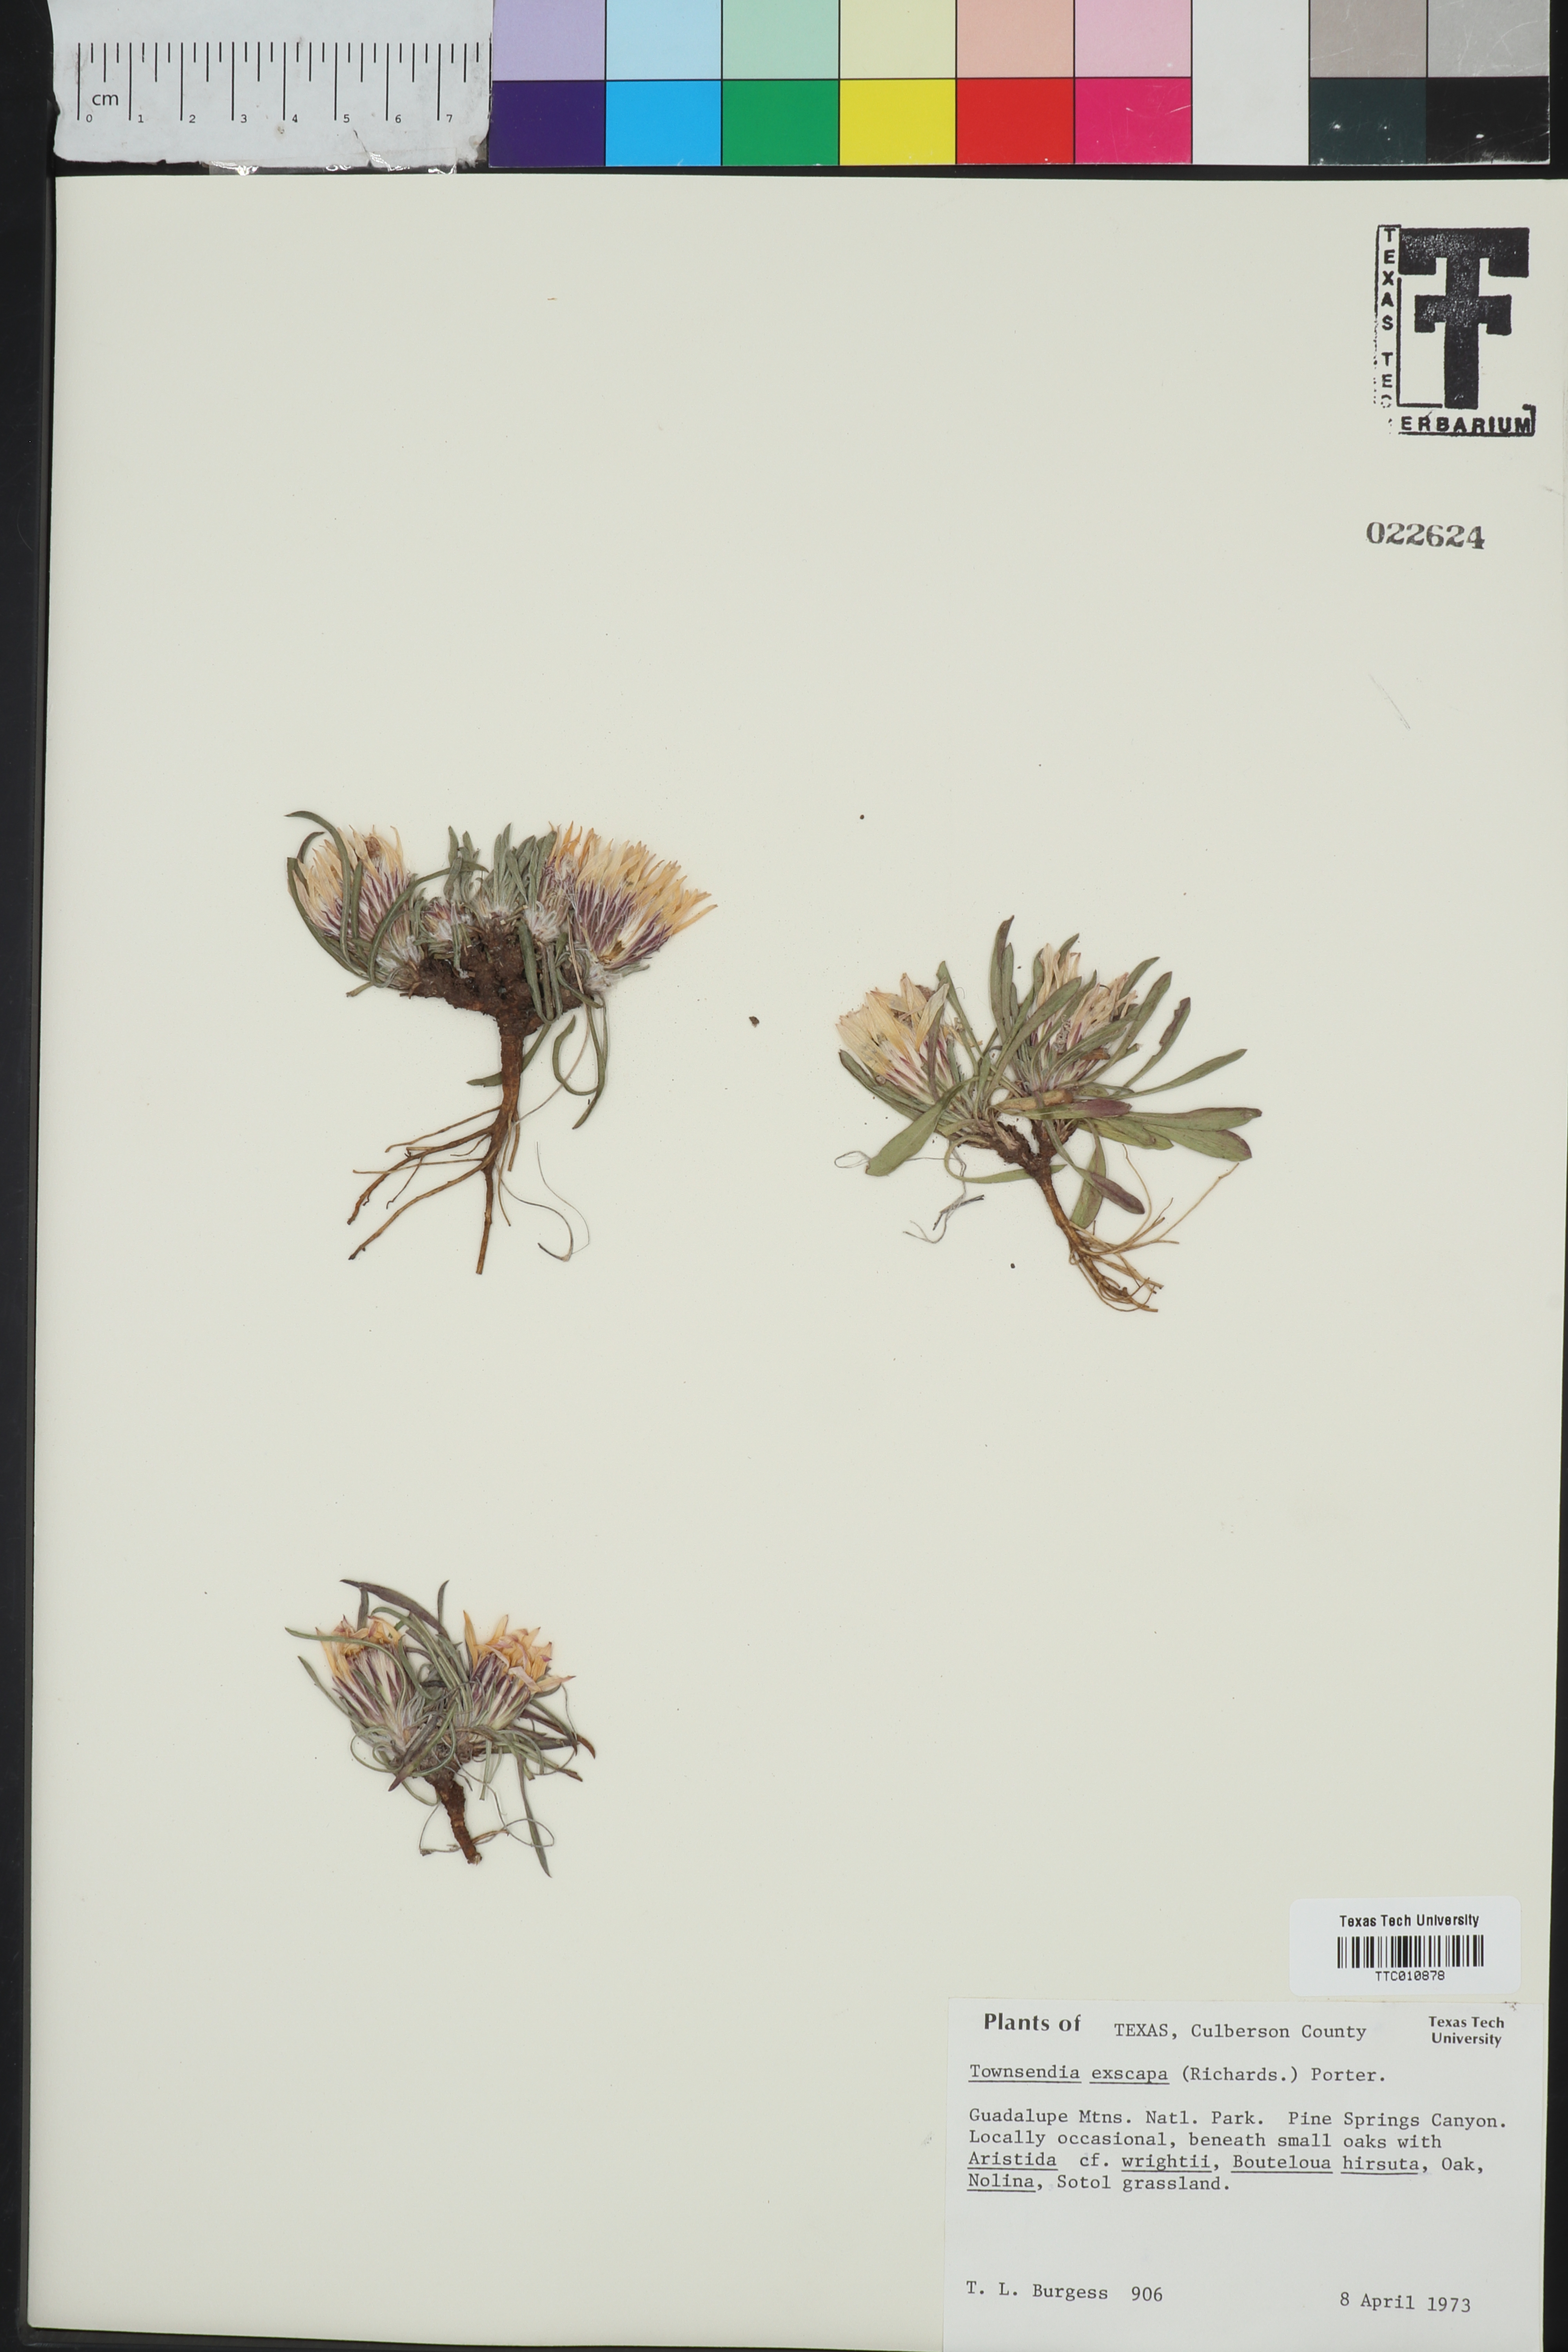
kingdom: Plantae
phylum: Tracheophyta
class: Magnoliopsida
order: Asterales
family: Asteraceae
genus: Townsendia
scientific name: Townsendia exscapa
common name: Dwarf townsendia
